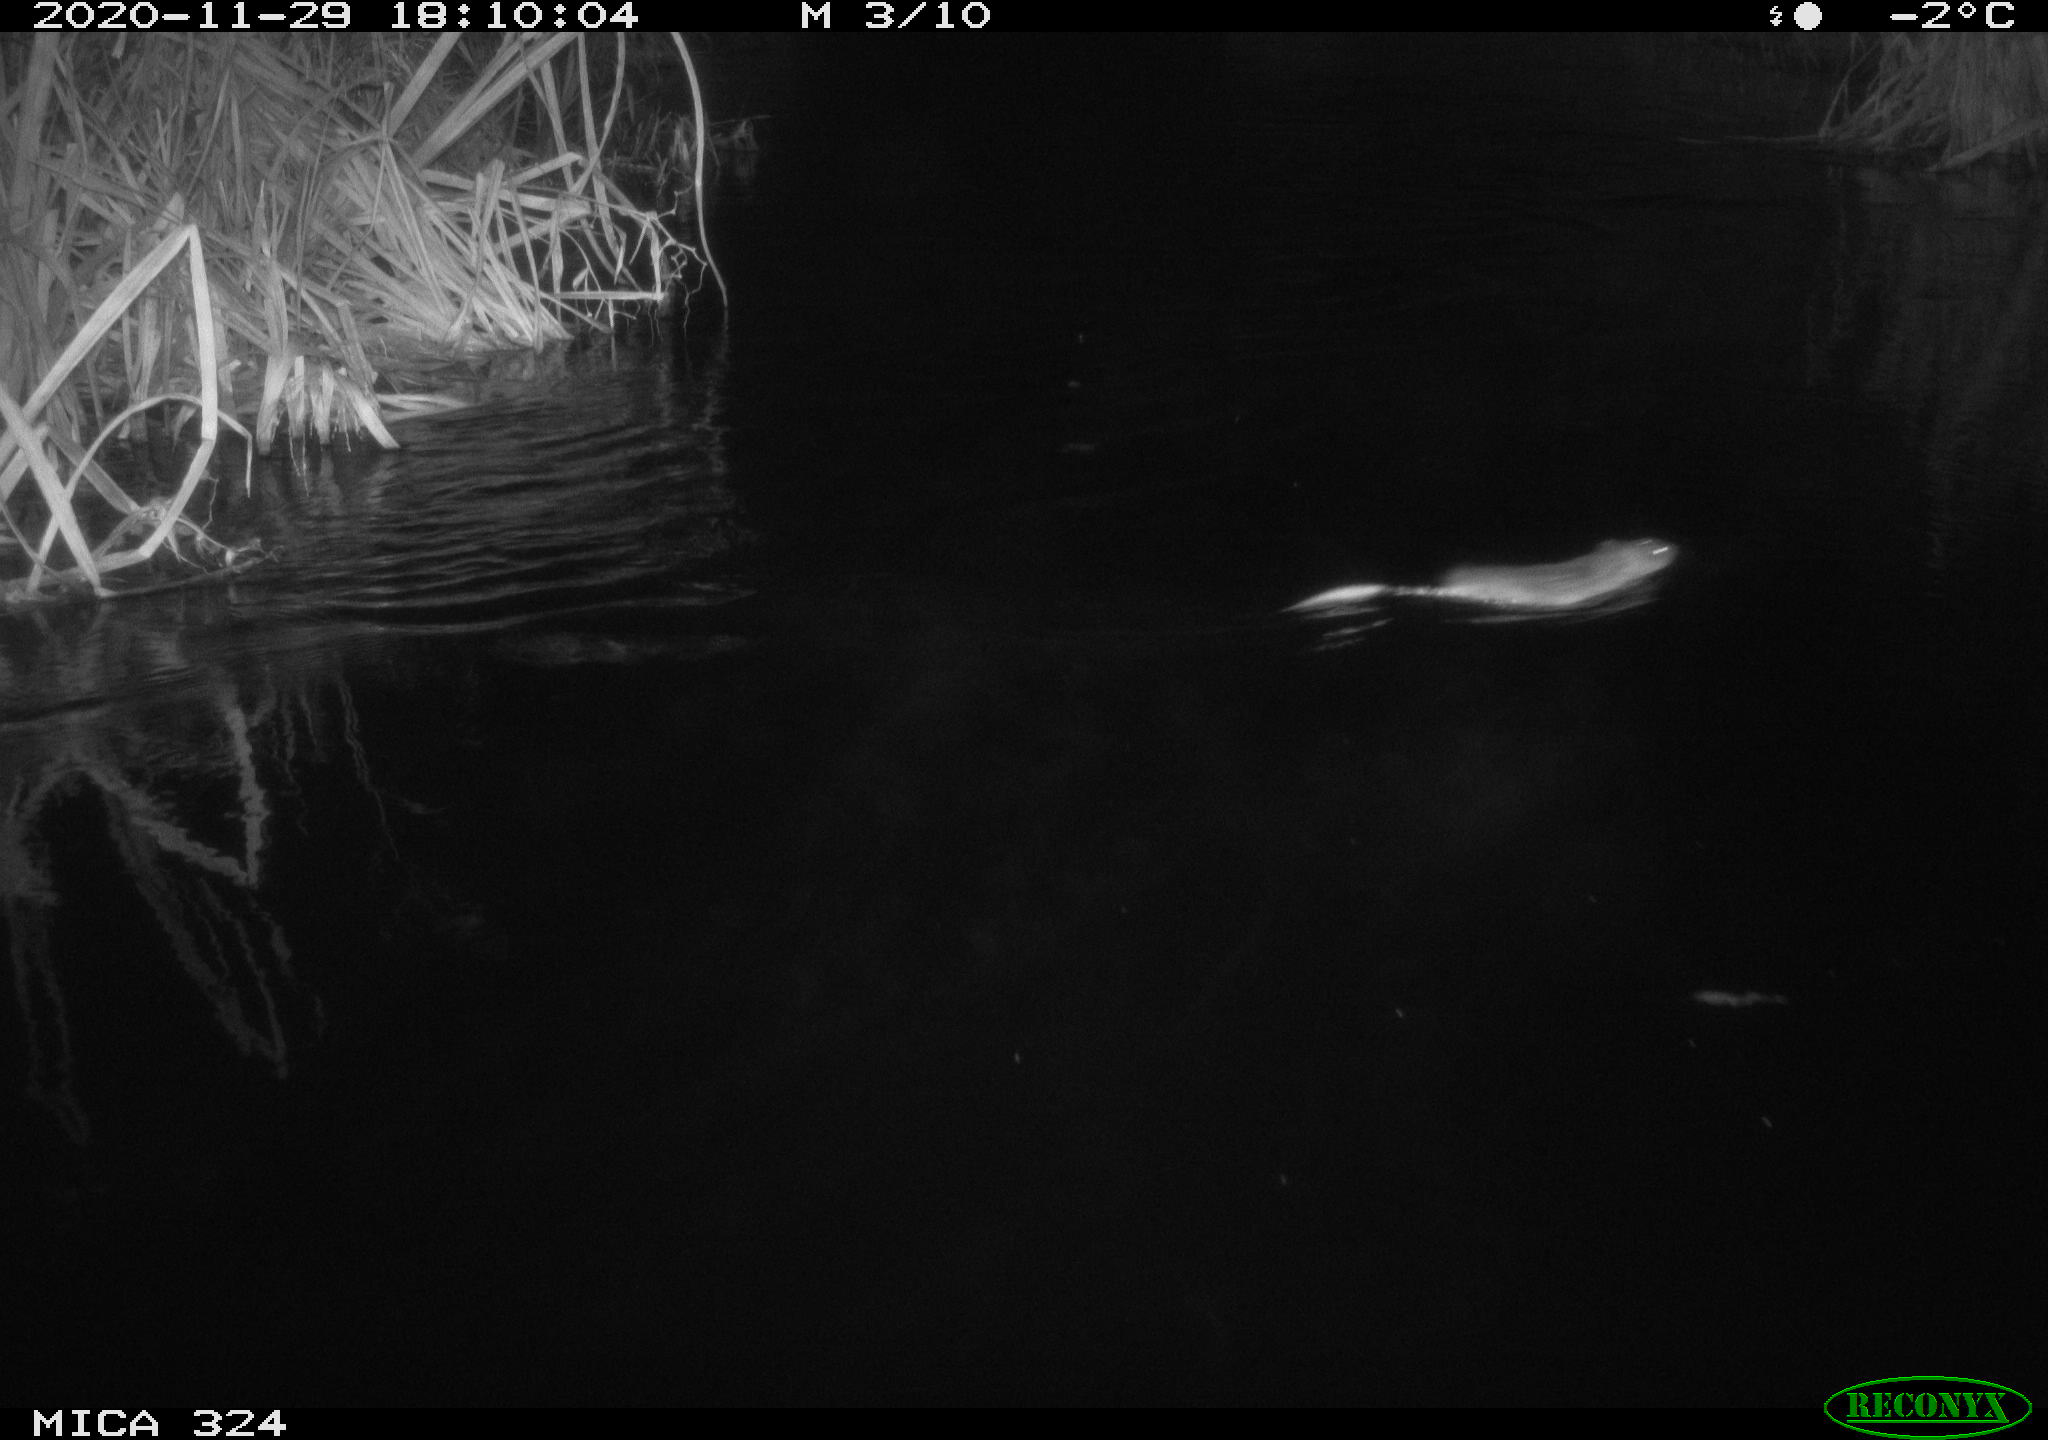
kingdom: Animalia
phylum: Chordata
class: Mammalia
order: Rodentia
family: Cricetidae
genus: Ondatra
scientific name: Ondatra zibethicus
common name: Muskrat
